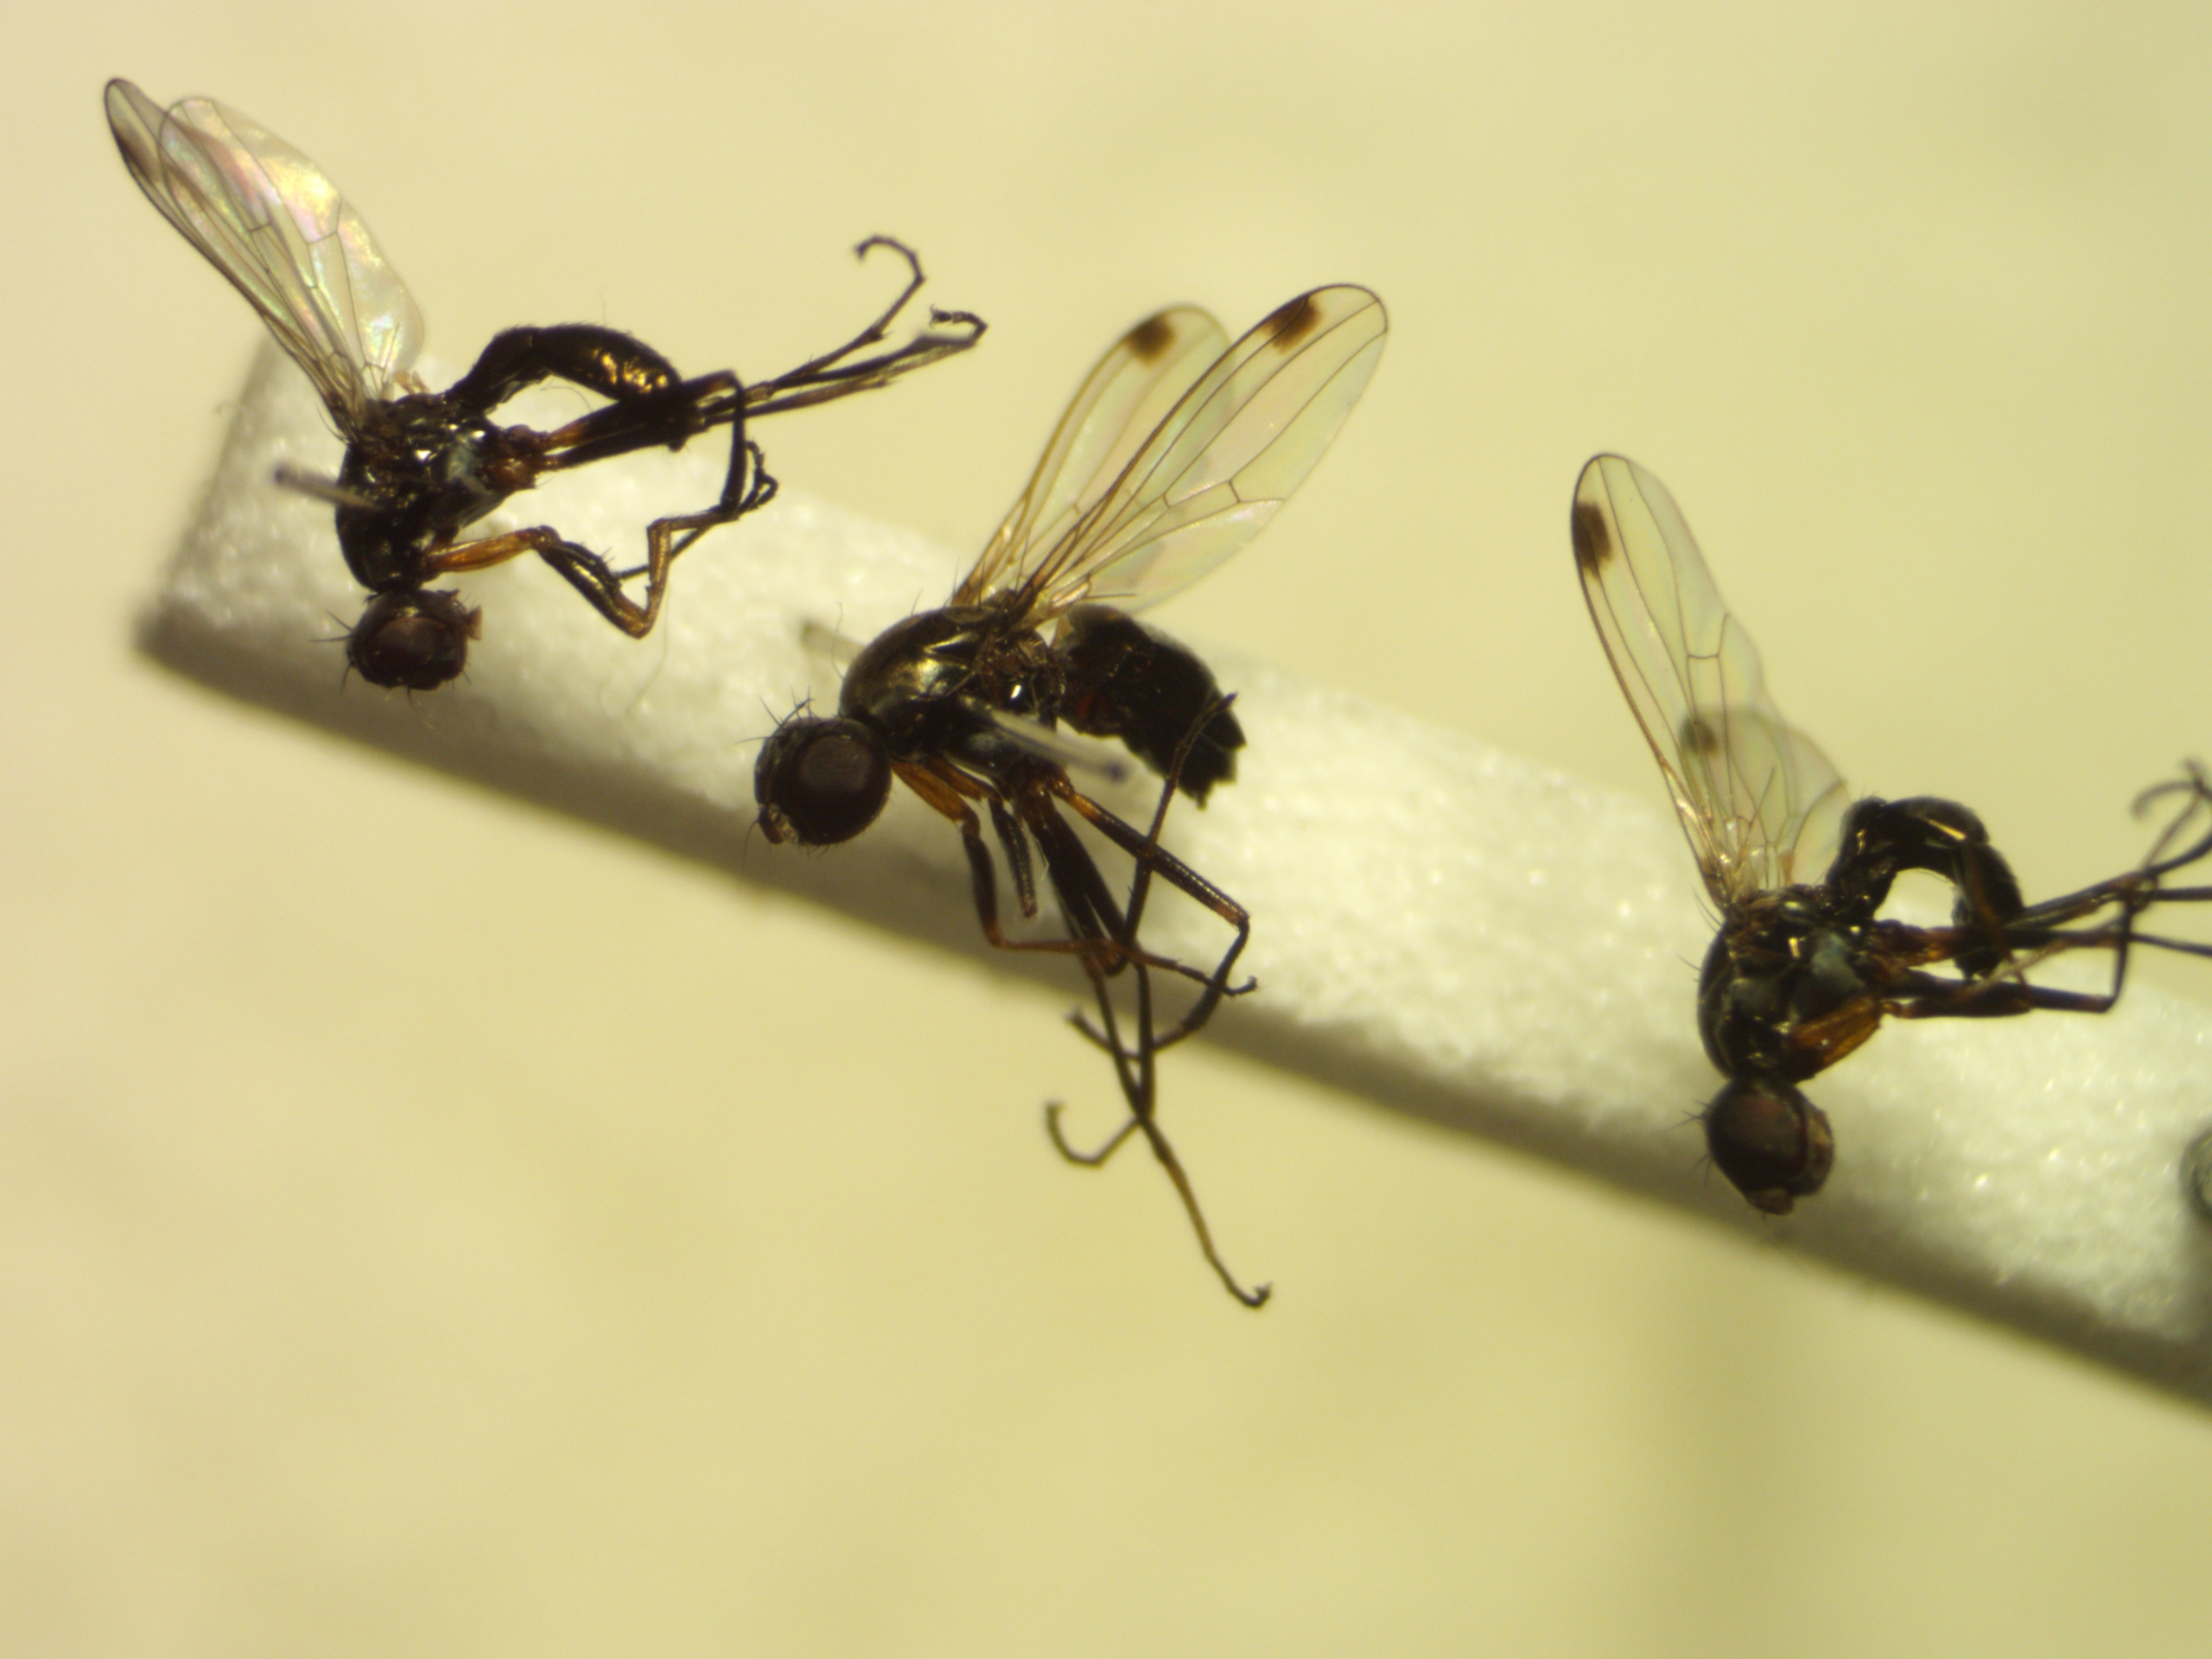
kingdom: Animalia
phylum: Arthropoda
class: Insecta
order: Diptera
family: Sepsidae
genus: Sepsis
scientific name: Sepsis cynipsea
